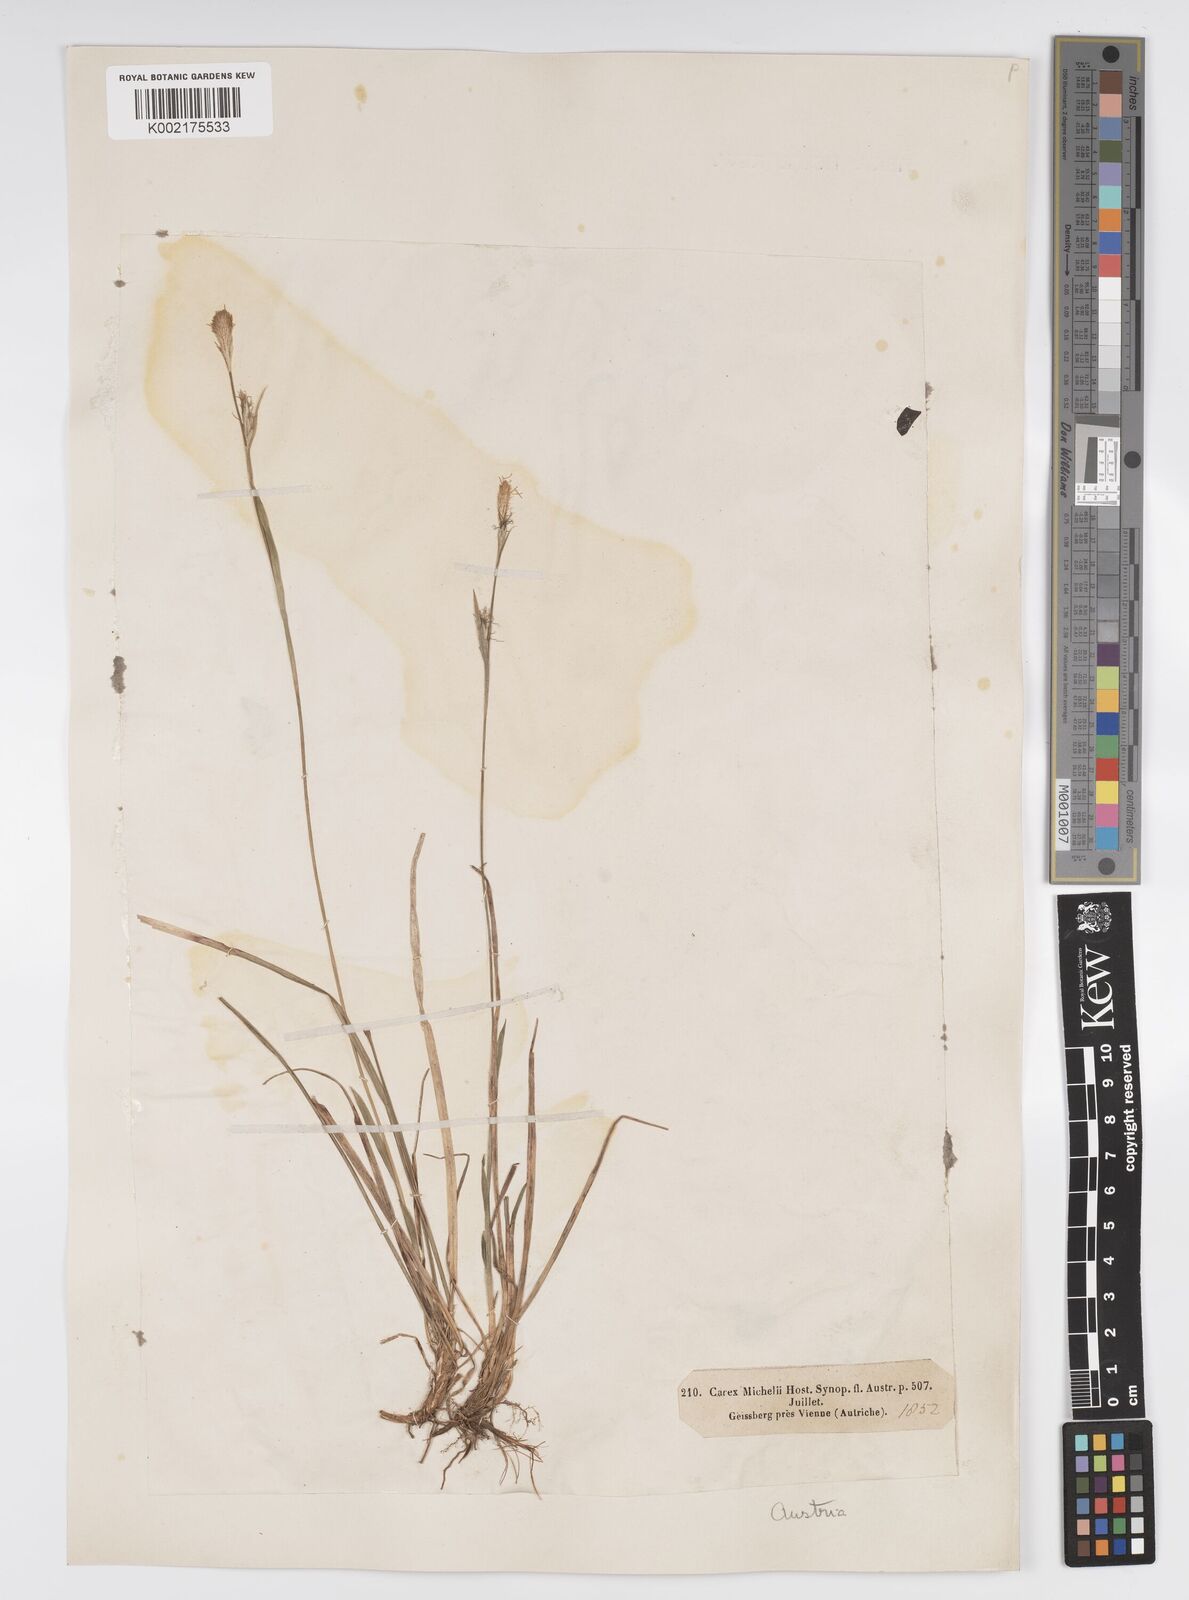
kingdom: Plantae
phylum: Tracheophyta
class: Liliopsida
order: Poales
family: Cyperaceae
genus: Carex
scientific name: Carex michelii
